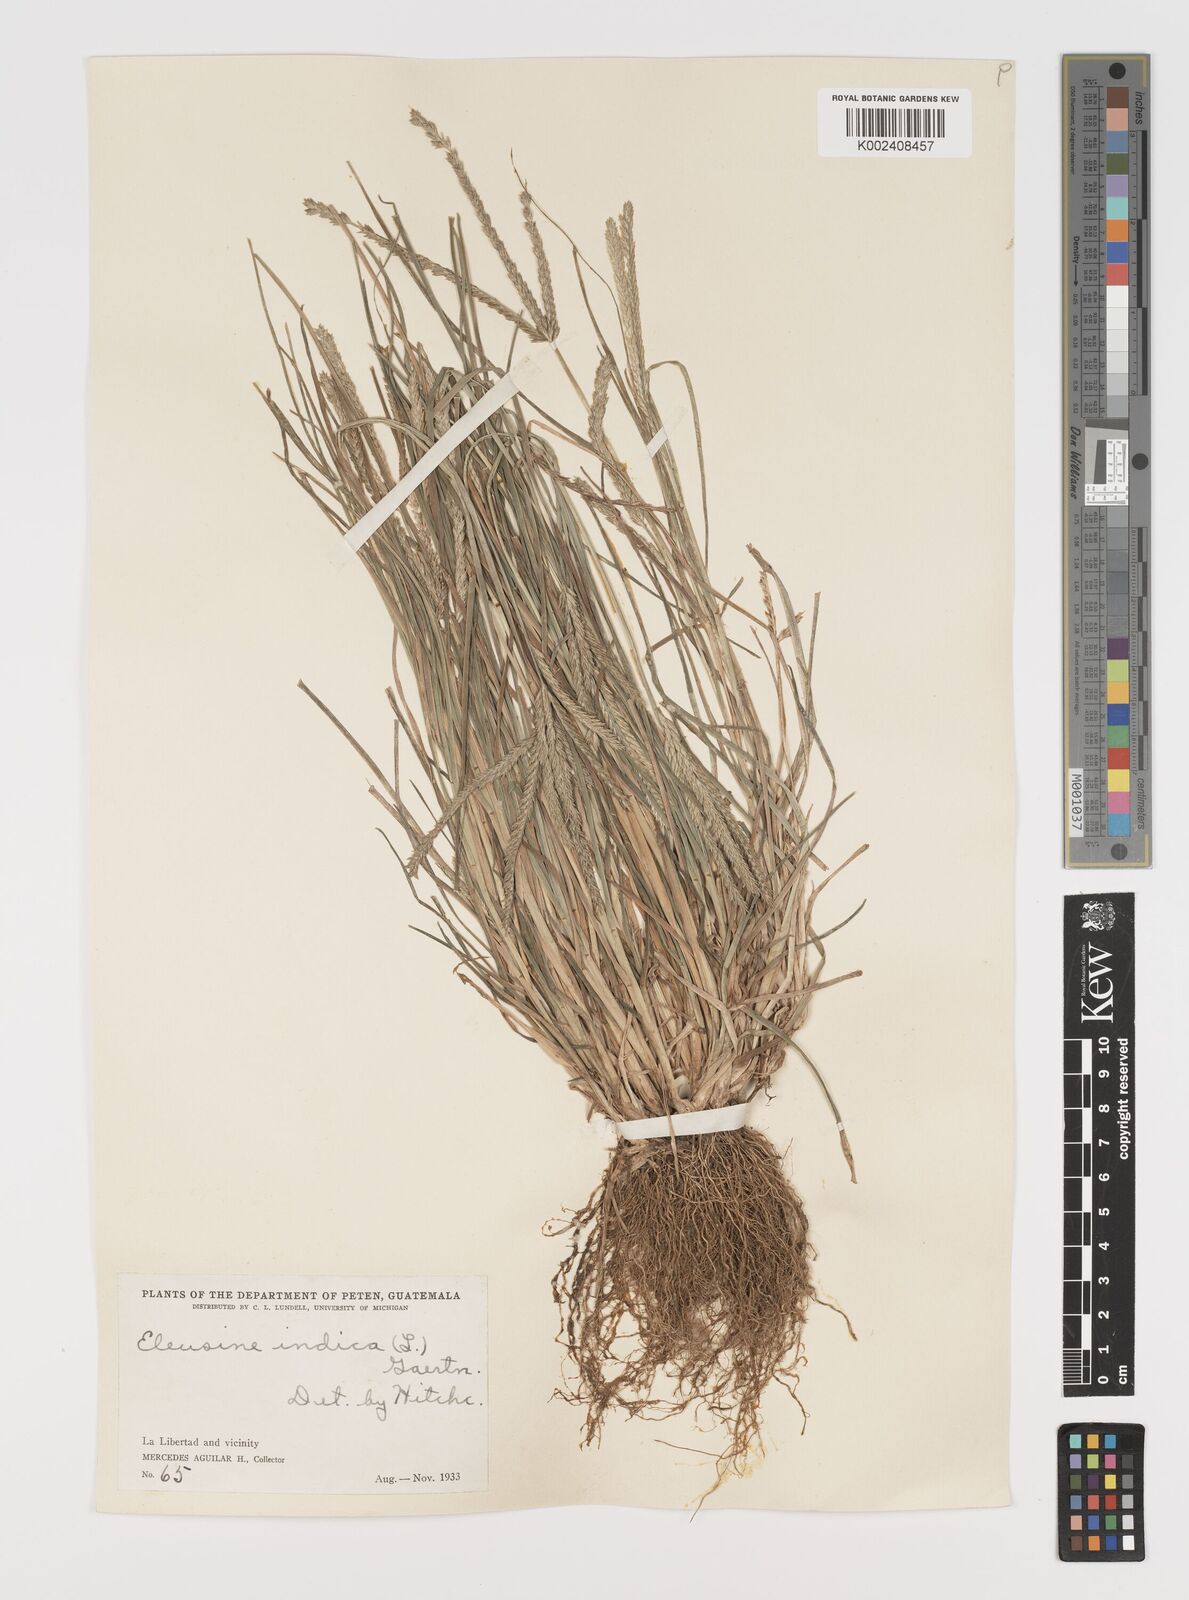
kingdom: Plantae
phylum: Tracheophyta
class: Liliopsida
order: Poales
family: Poaceae
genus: Eleusine
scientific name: Eleusine indica
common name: Yard-grass
